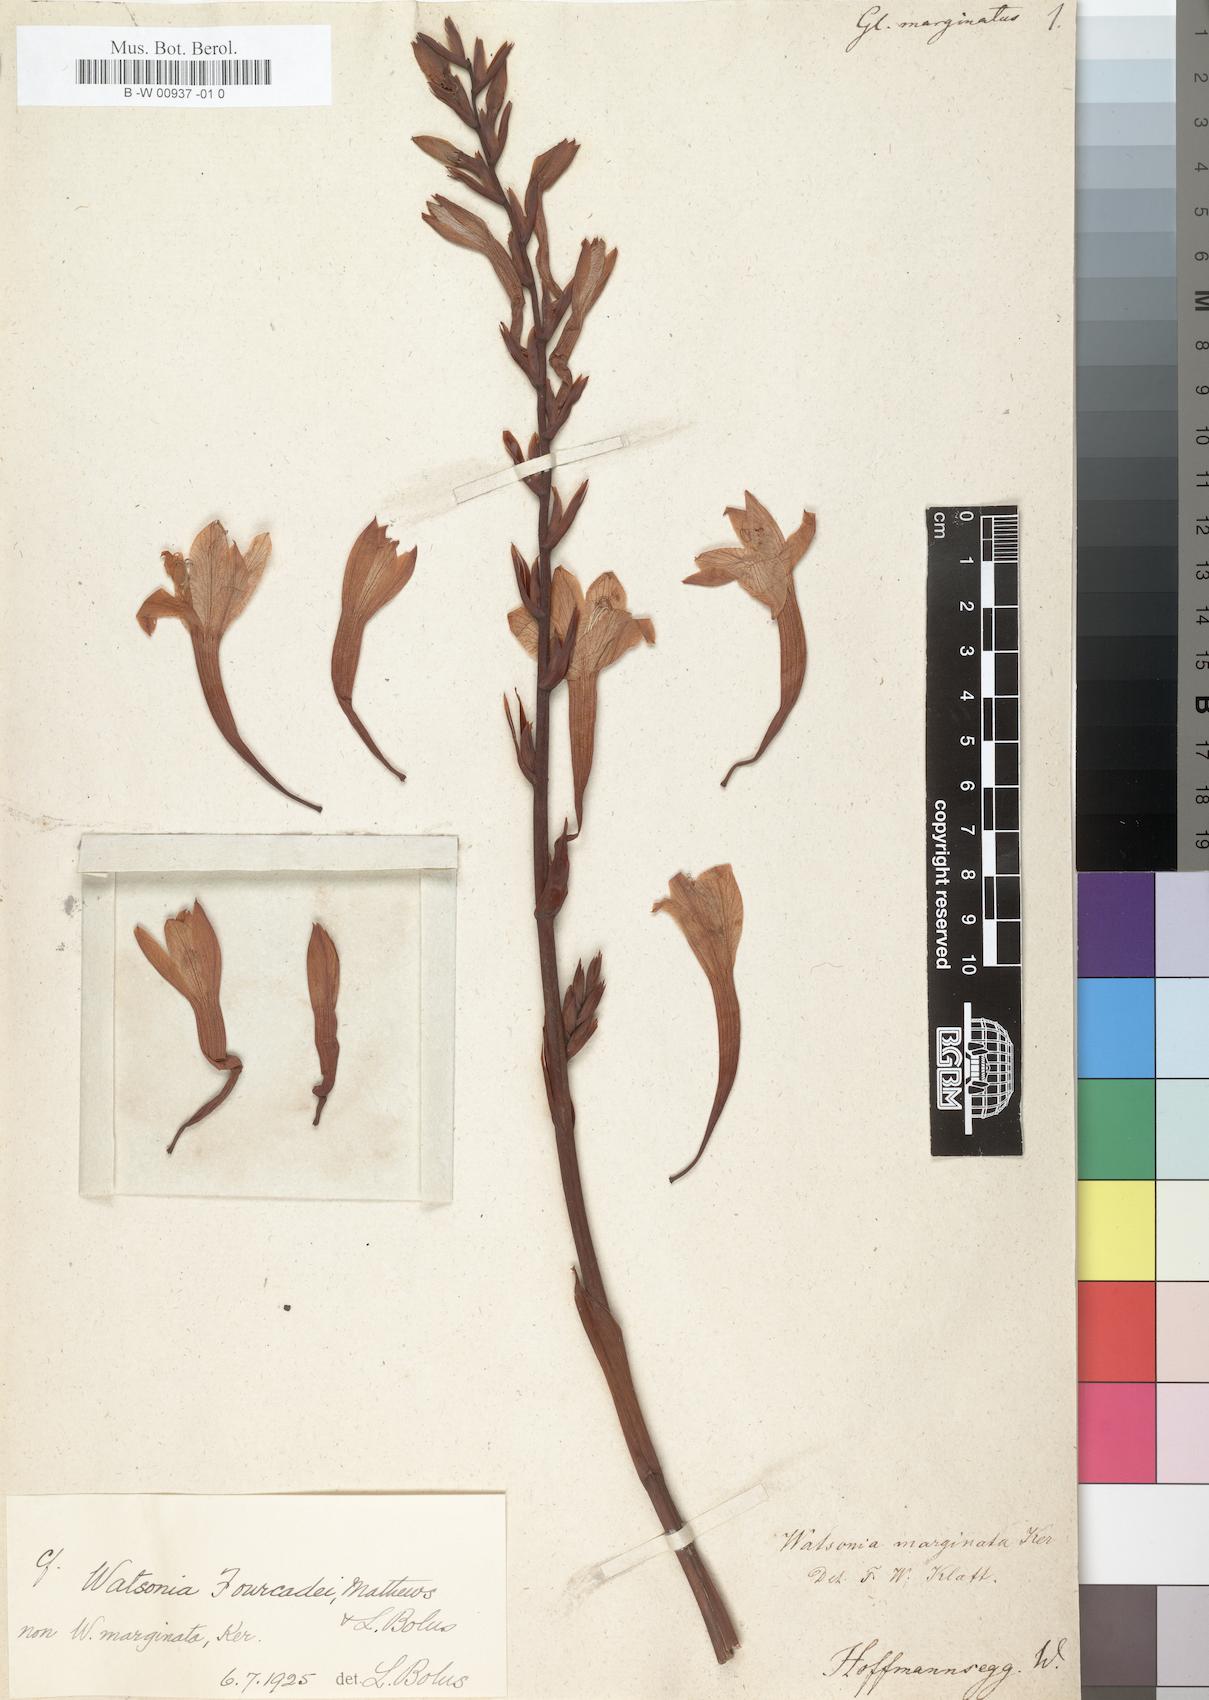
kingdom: Plantae
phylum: Tracheophyta
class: Liliopsida
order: Asparagales
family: Iridaceae
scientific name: Iridaceae
